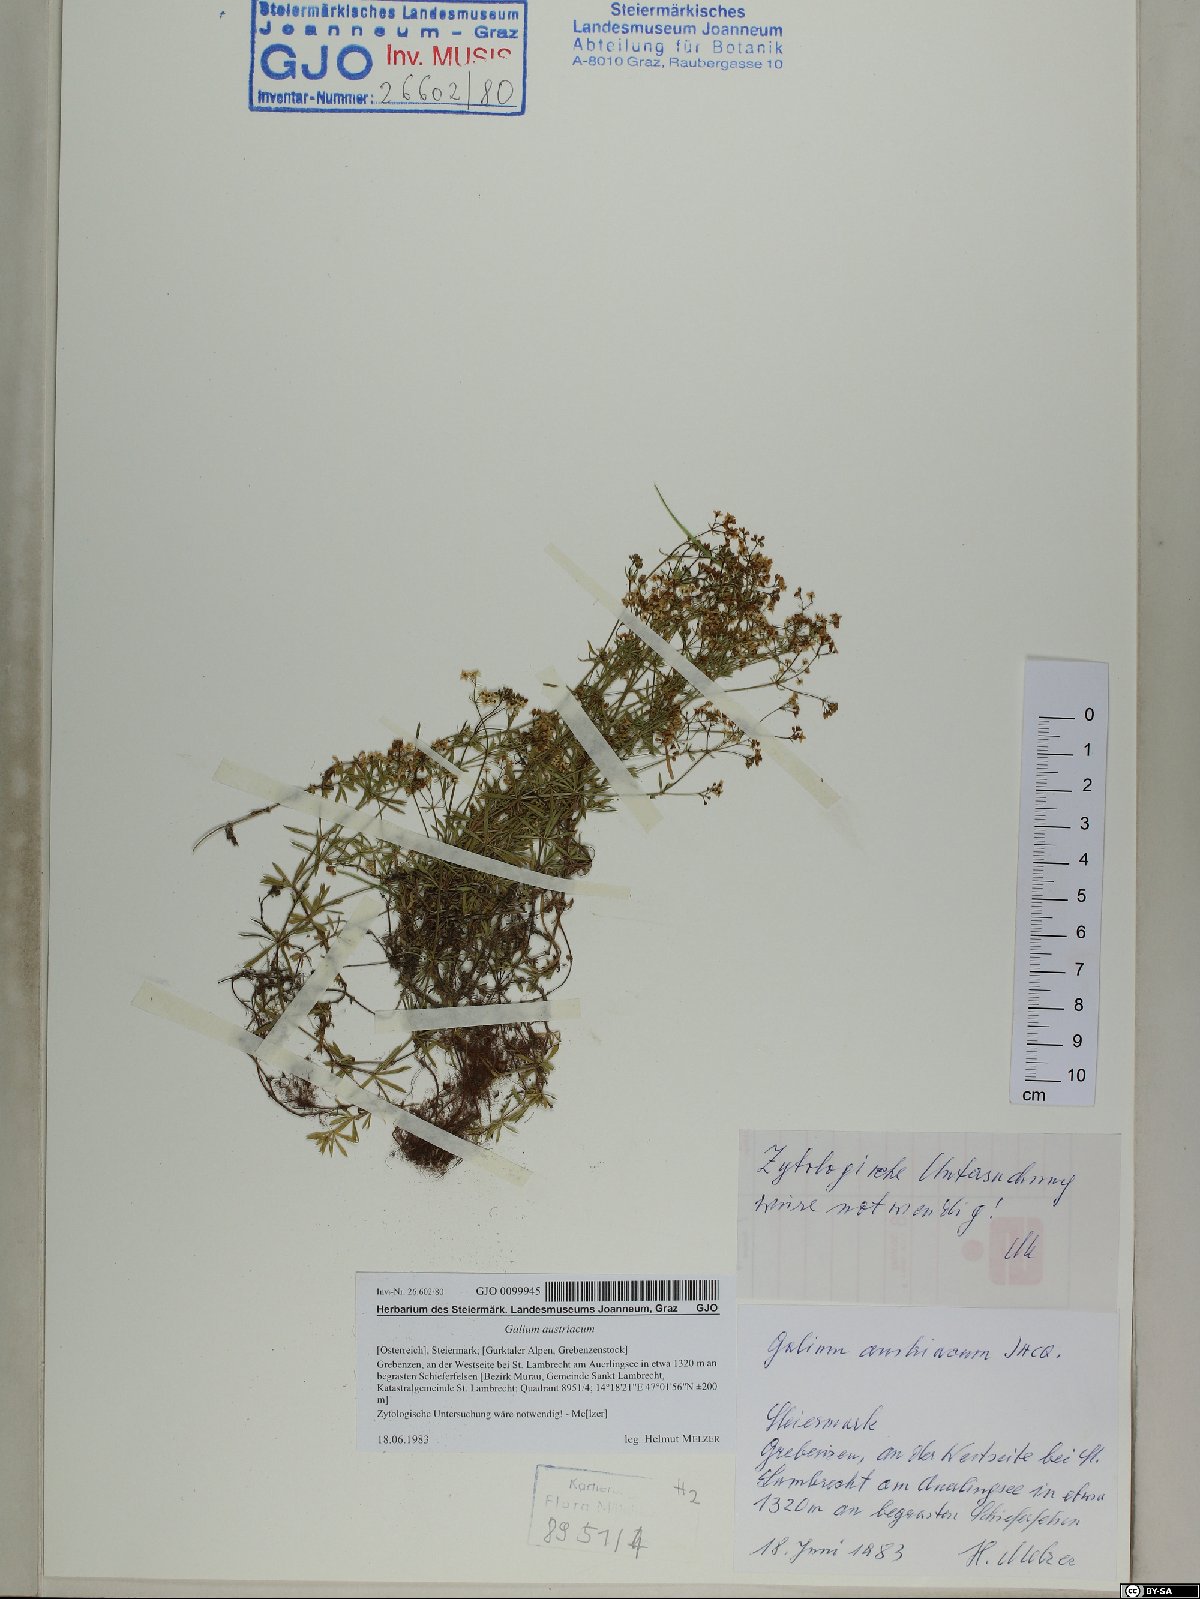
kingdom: Plantae
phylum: Tracheophyta
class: Magnoliopsida
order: Gentianales
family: Rubiaceae
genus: Galium
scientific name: Galium austriacum
